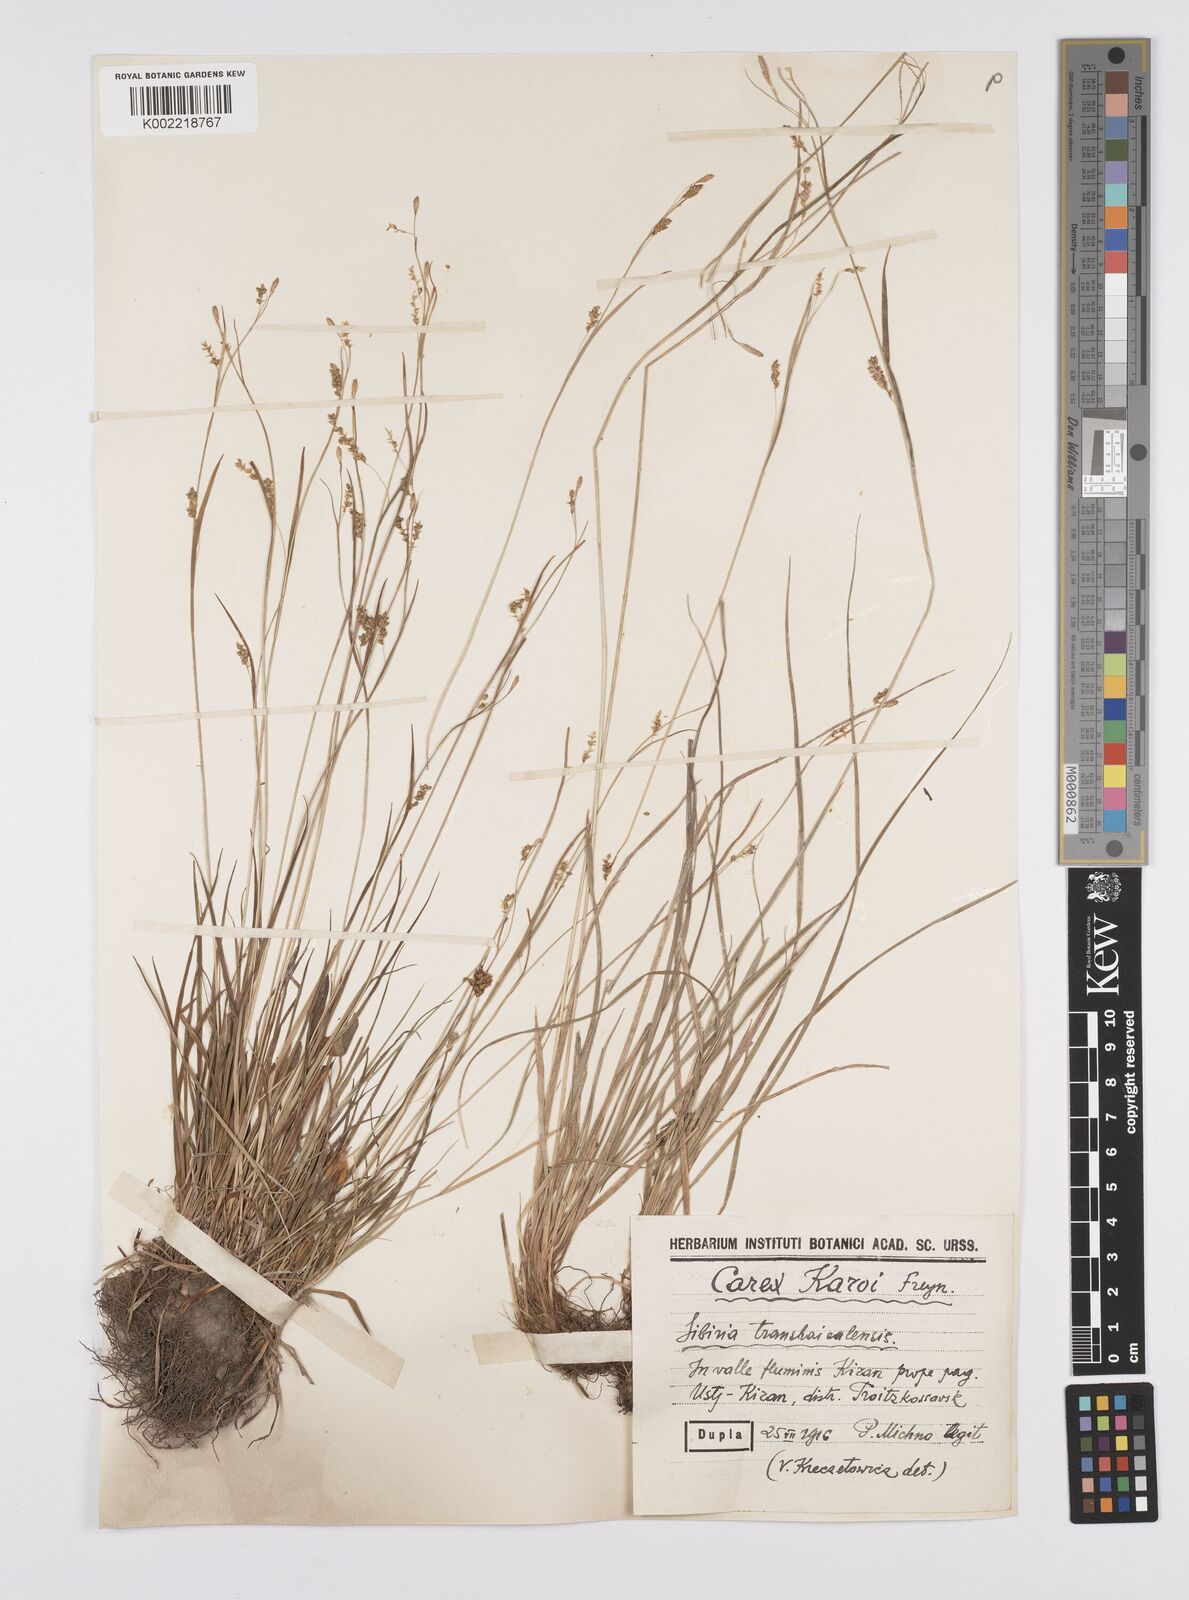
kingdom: Plantae
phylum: Tracheophyta
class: Liliopsida
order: Poales
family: Cyperaceae
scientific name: Cyperaceae
